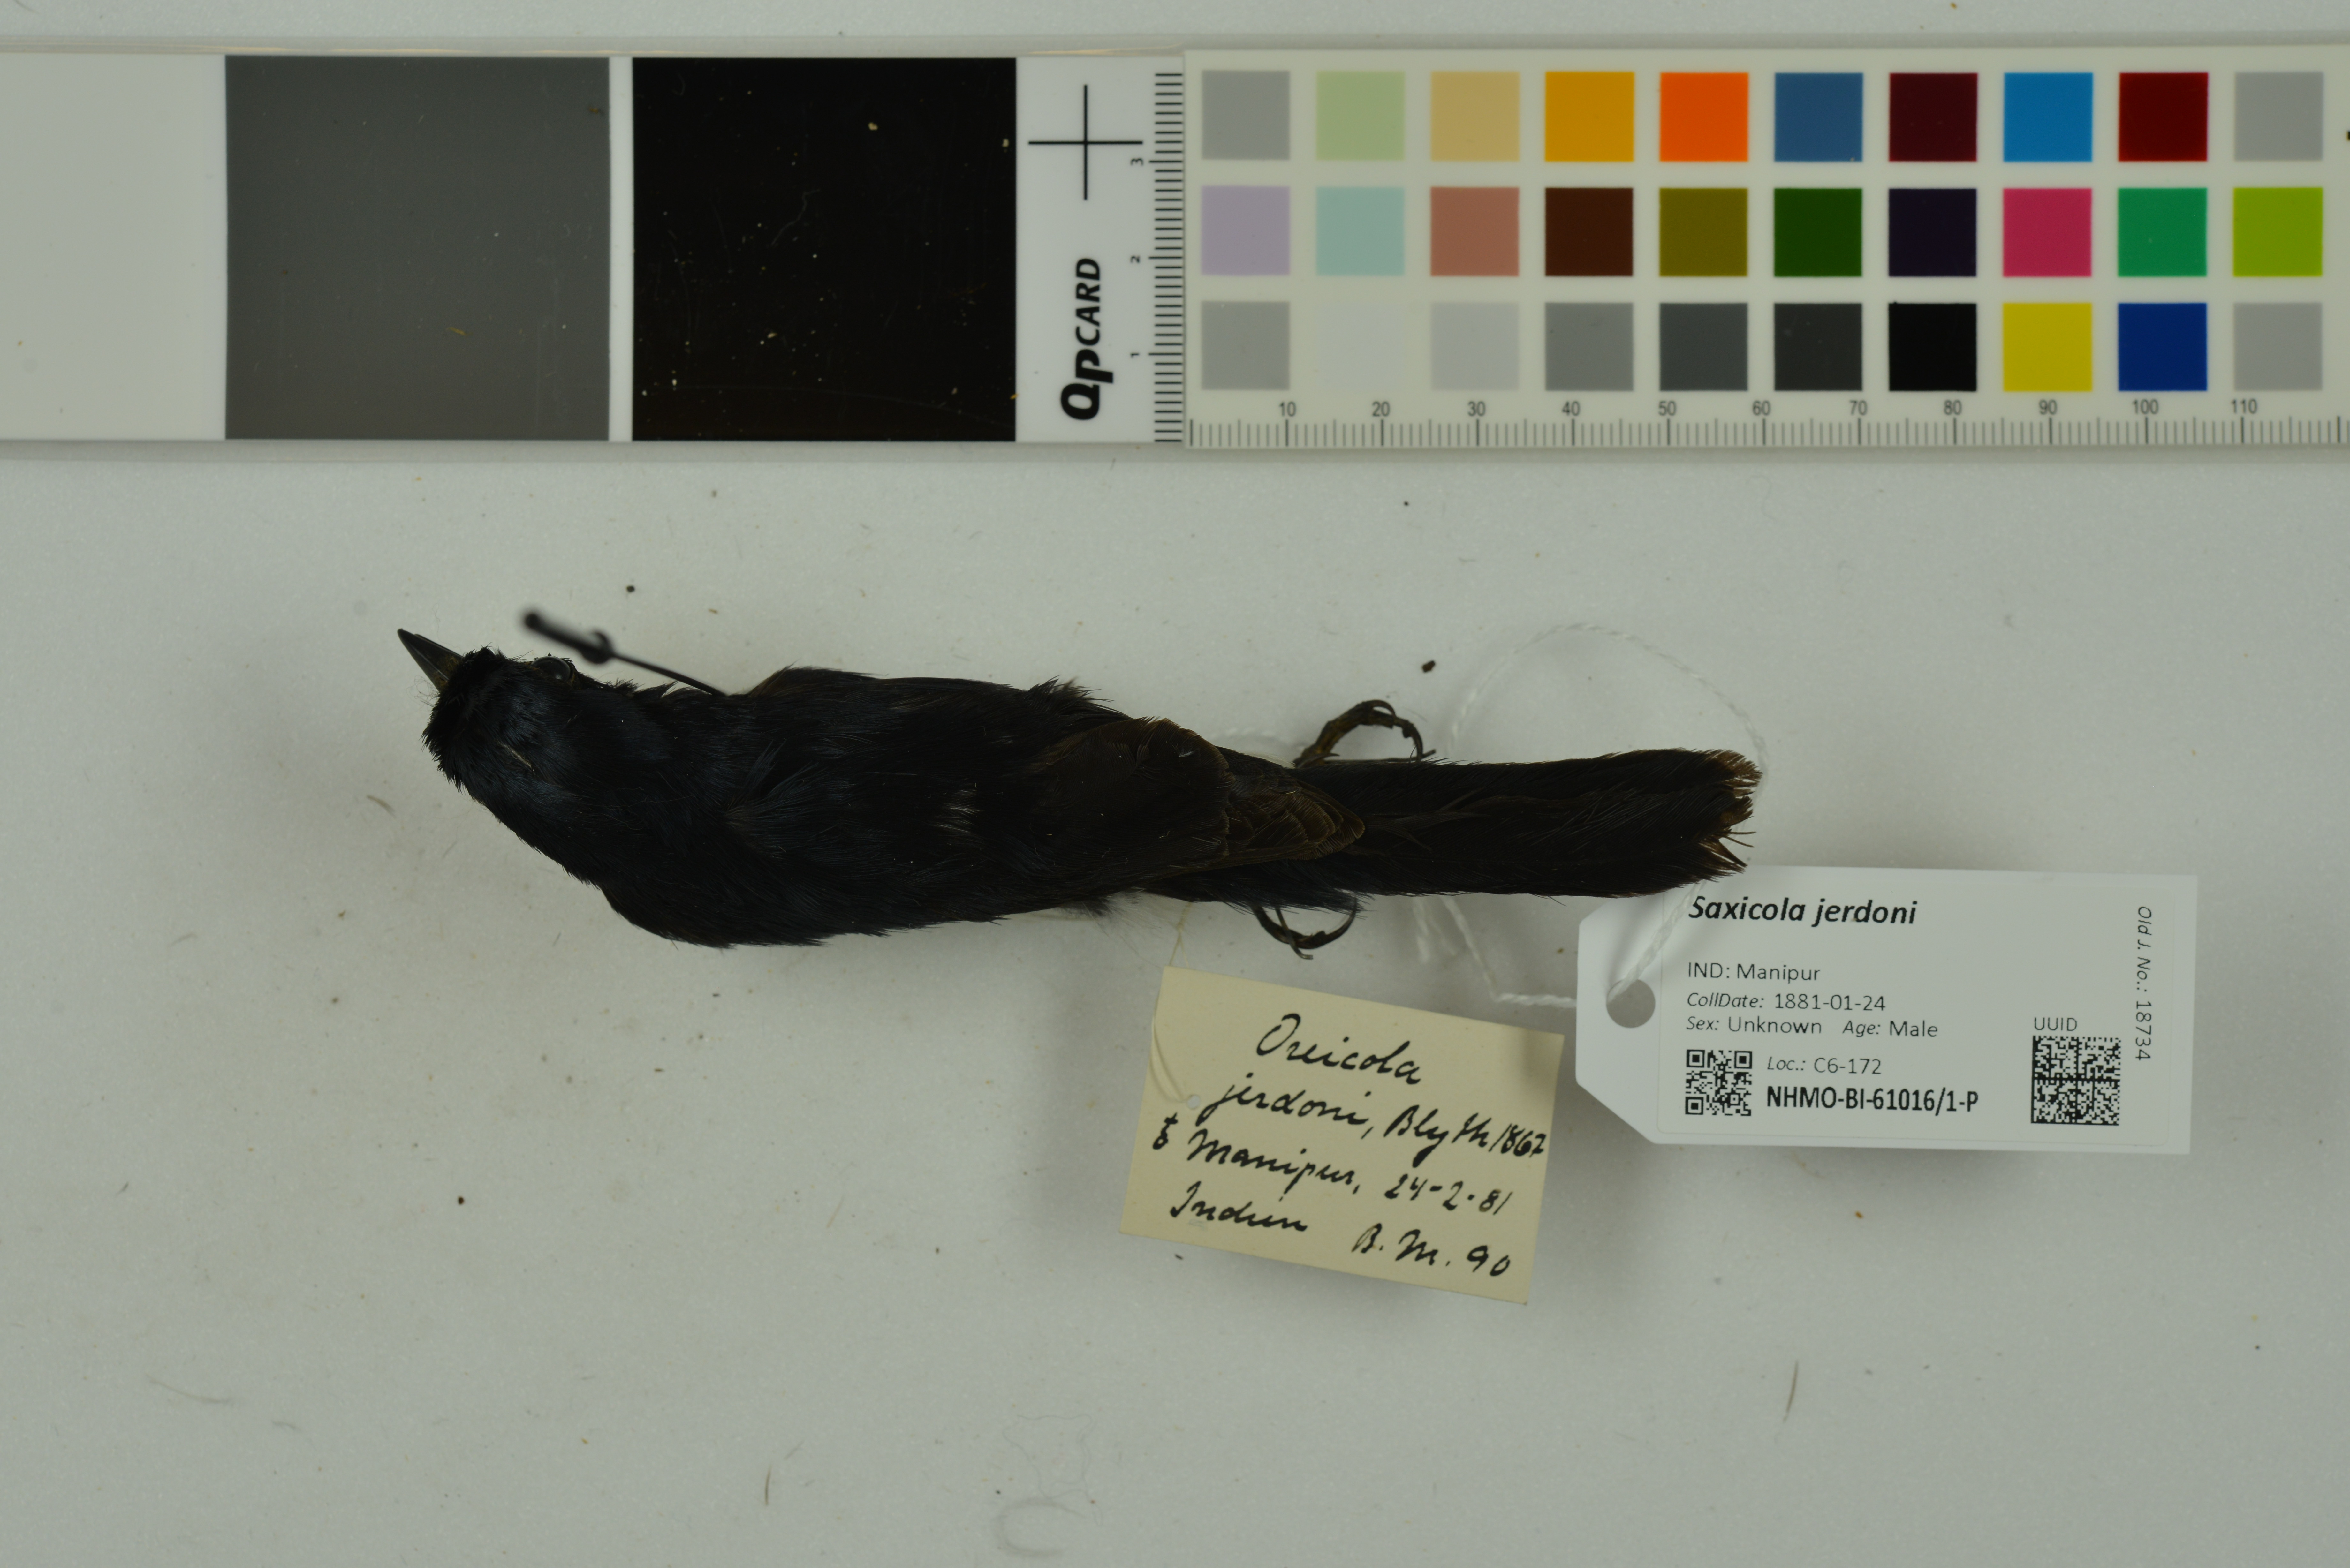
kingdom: Animalia
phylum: Chordata
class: Aves
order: Passeriformes
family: Muscicapidae
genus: Saxicola
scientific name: Saxicola jerdoni
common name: Jerdon's bush chat
